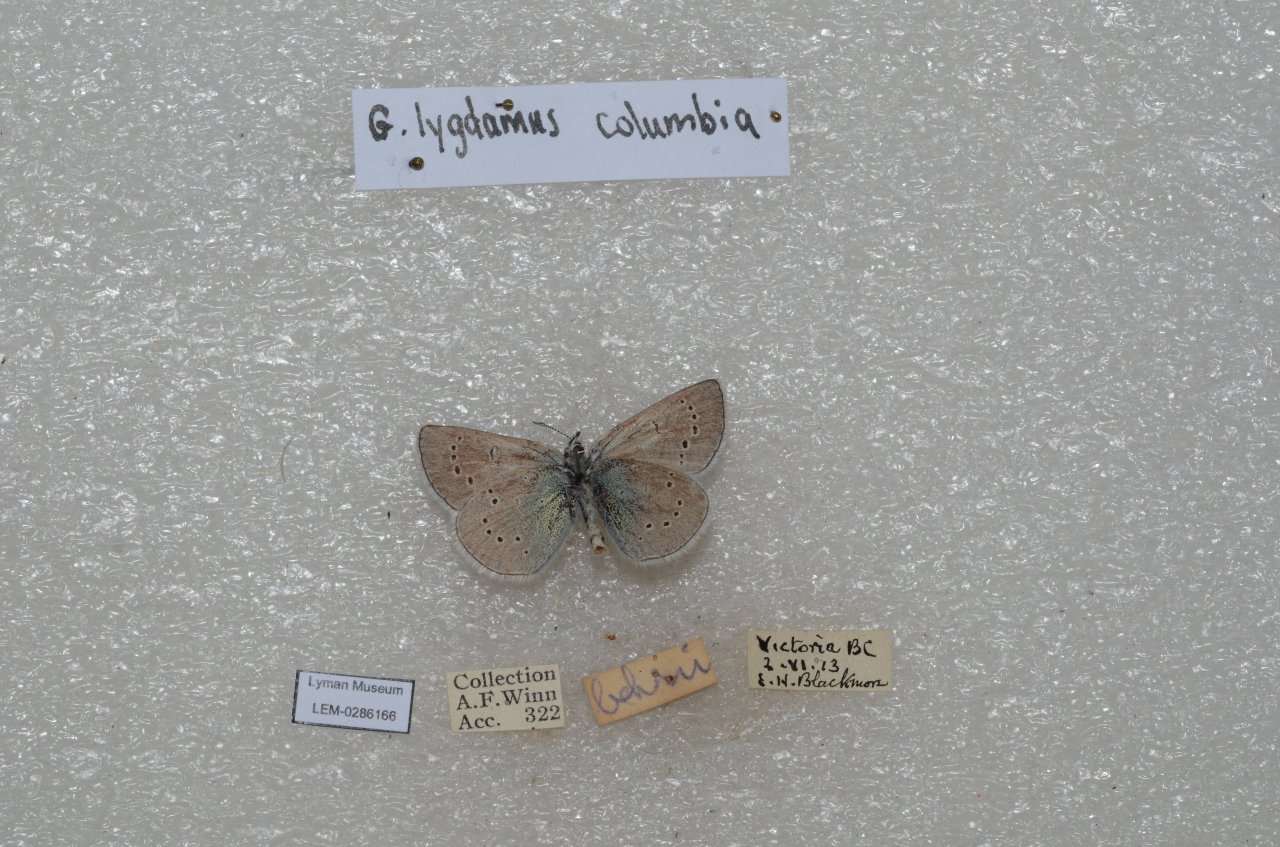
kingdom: Animalia
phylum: Arthropoda
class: Insecta
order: Lepidoptera
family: Lycaenidae
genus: Glaucopsyche
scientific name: Glaucopsyche lygdamus
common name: Silvery Blue
